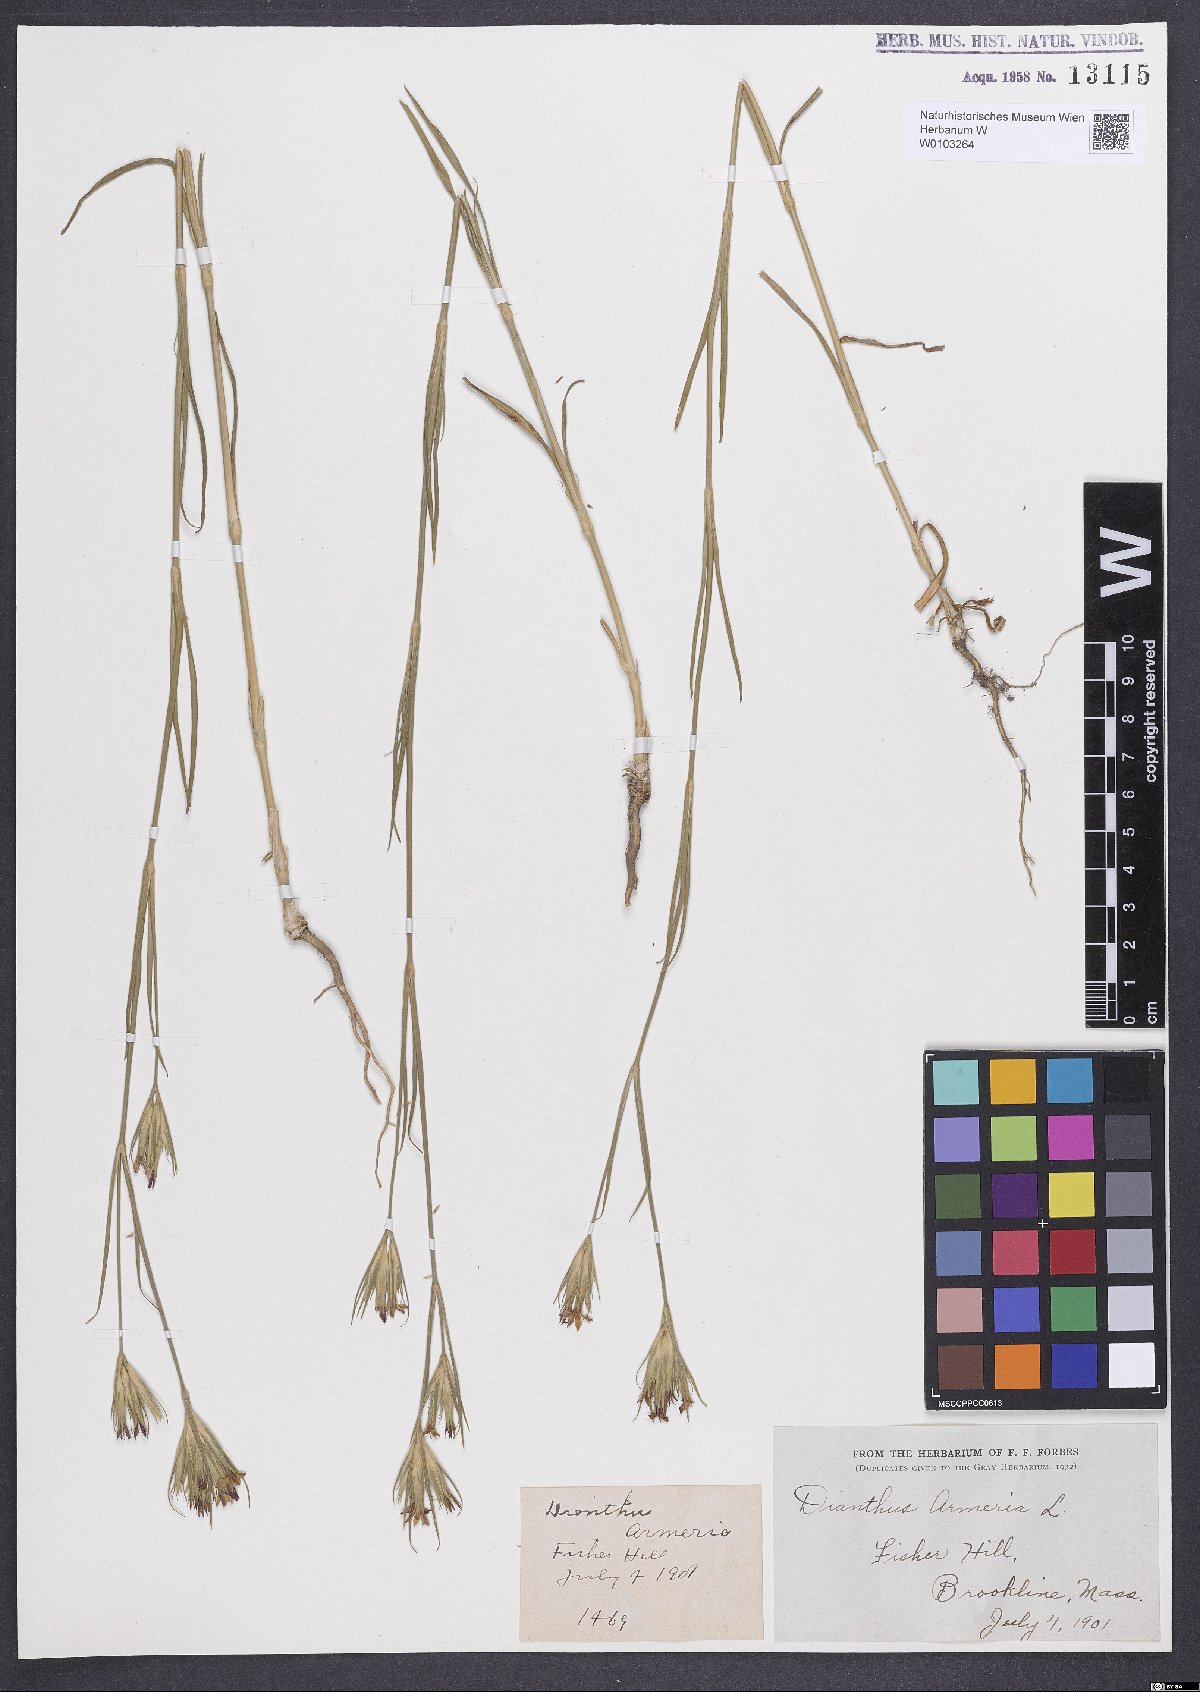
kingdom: Plantae
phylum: Tracheophyta
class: Magnoliopsida
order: Caryophyllales
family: Caryophyllaceae
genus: Dianthus
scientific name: Dianthus armeria
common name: Deptford pink
